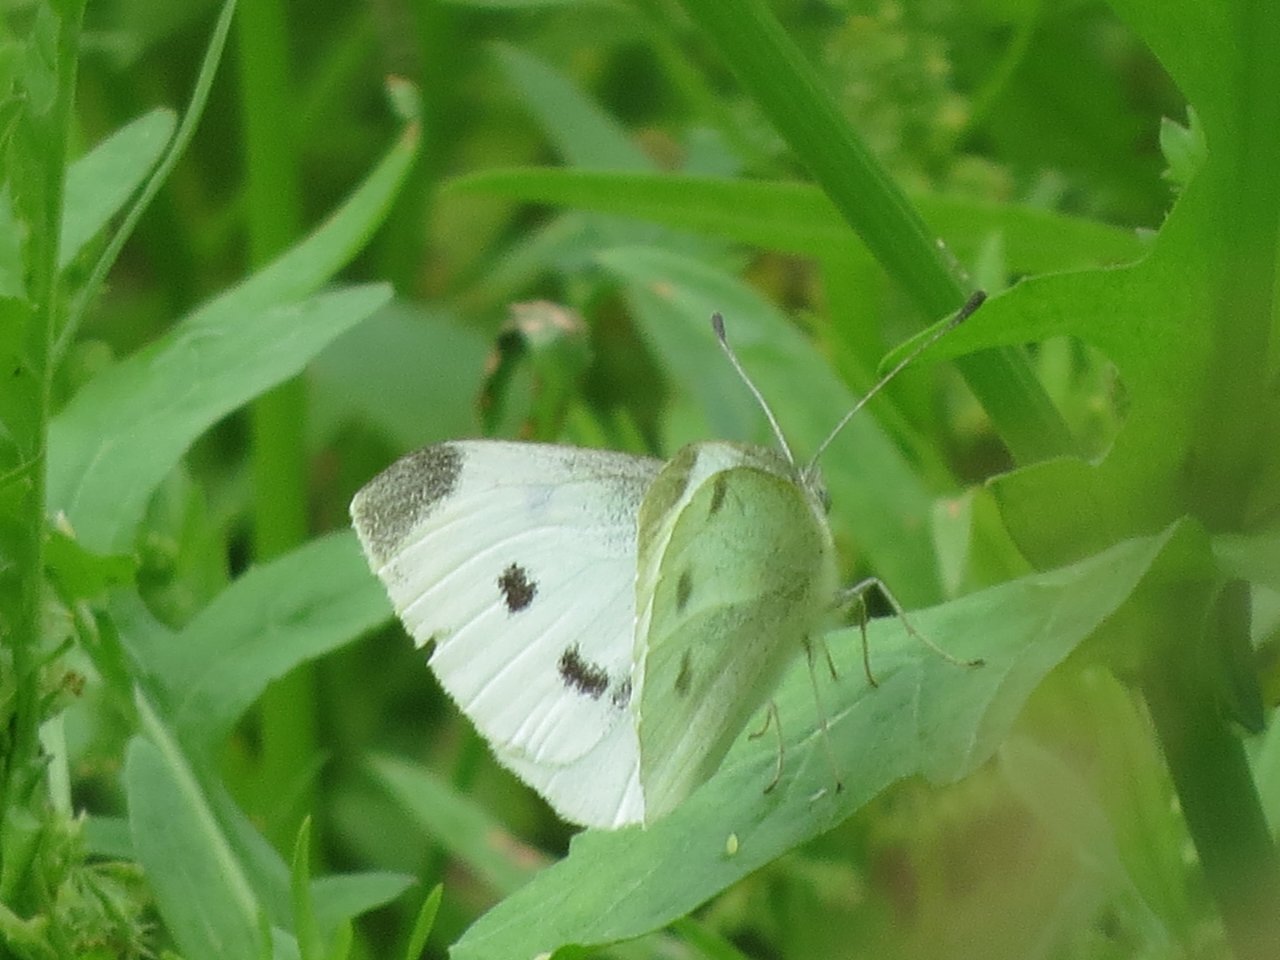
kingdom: Animalia
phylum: Arthropoda
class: Insecta
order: Lepidoptera
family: Pieridae
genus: Pieris
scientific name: Pieris rapae
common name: Cabbage White
